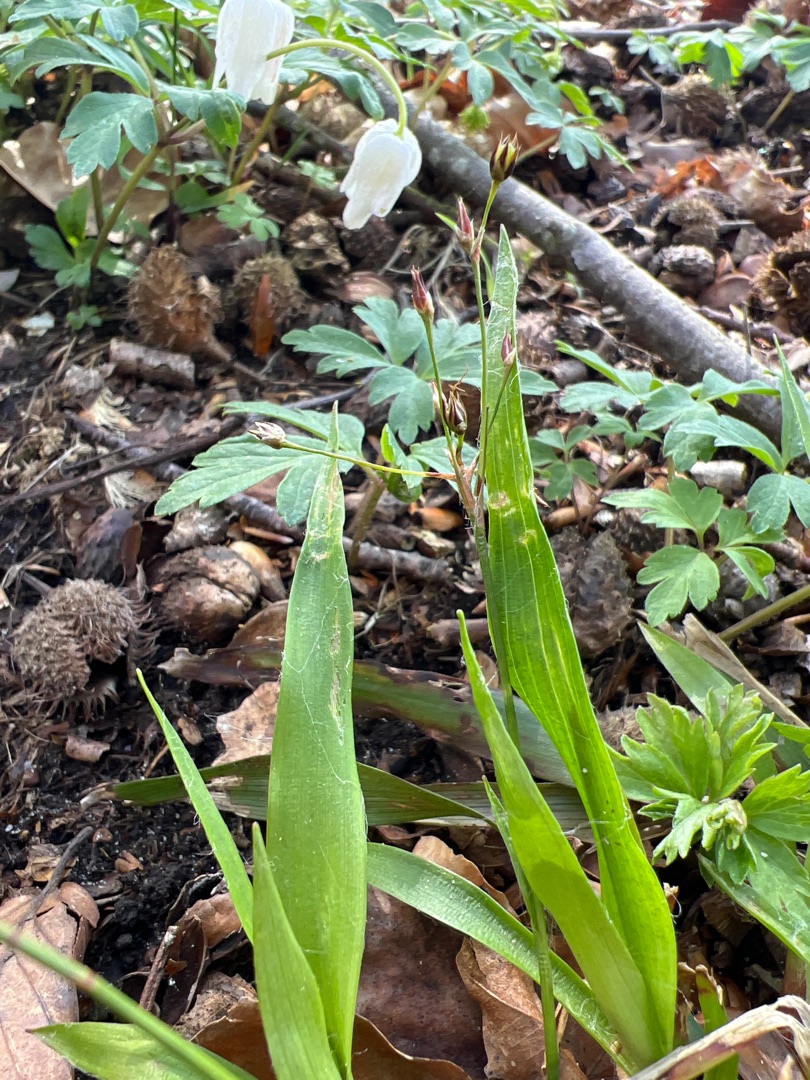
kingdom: Plantae
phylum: Tracheophyta
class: Liliopsida
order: Poales
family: Juncaceae
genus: Luzula
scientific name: Luzula pilosa
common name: Håret frytle
